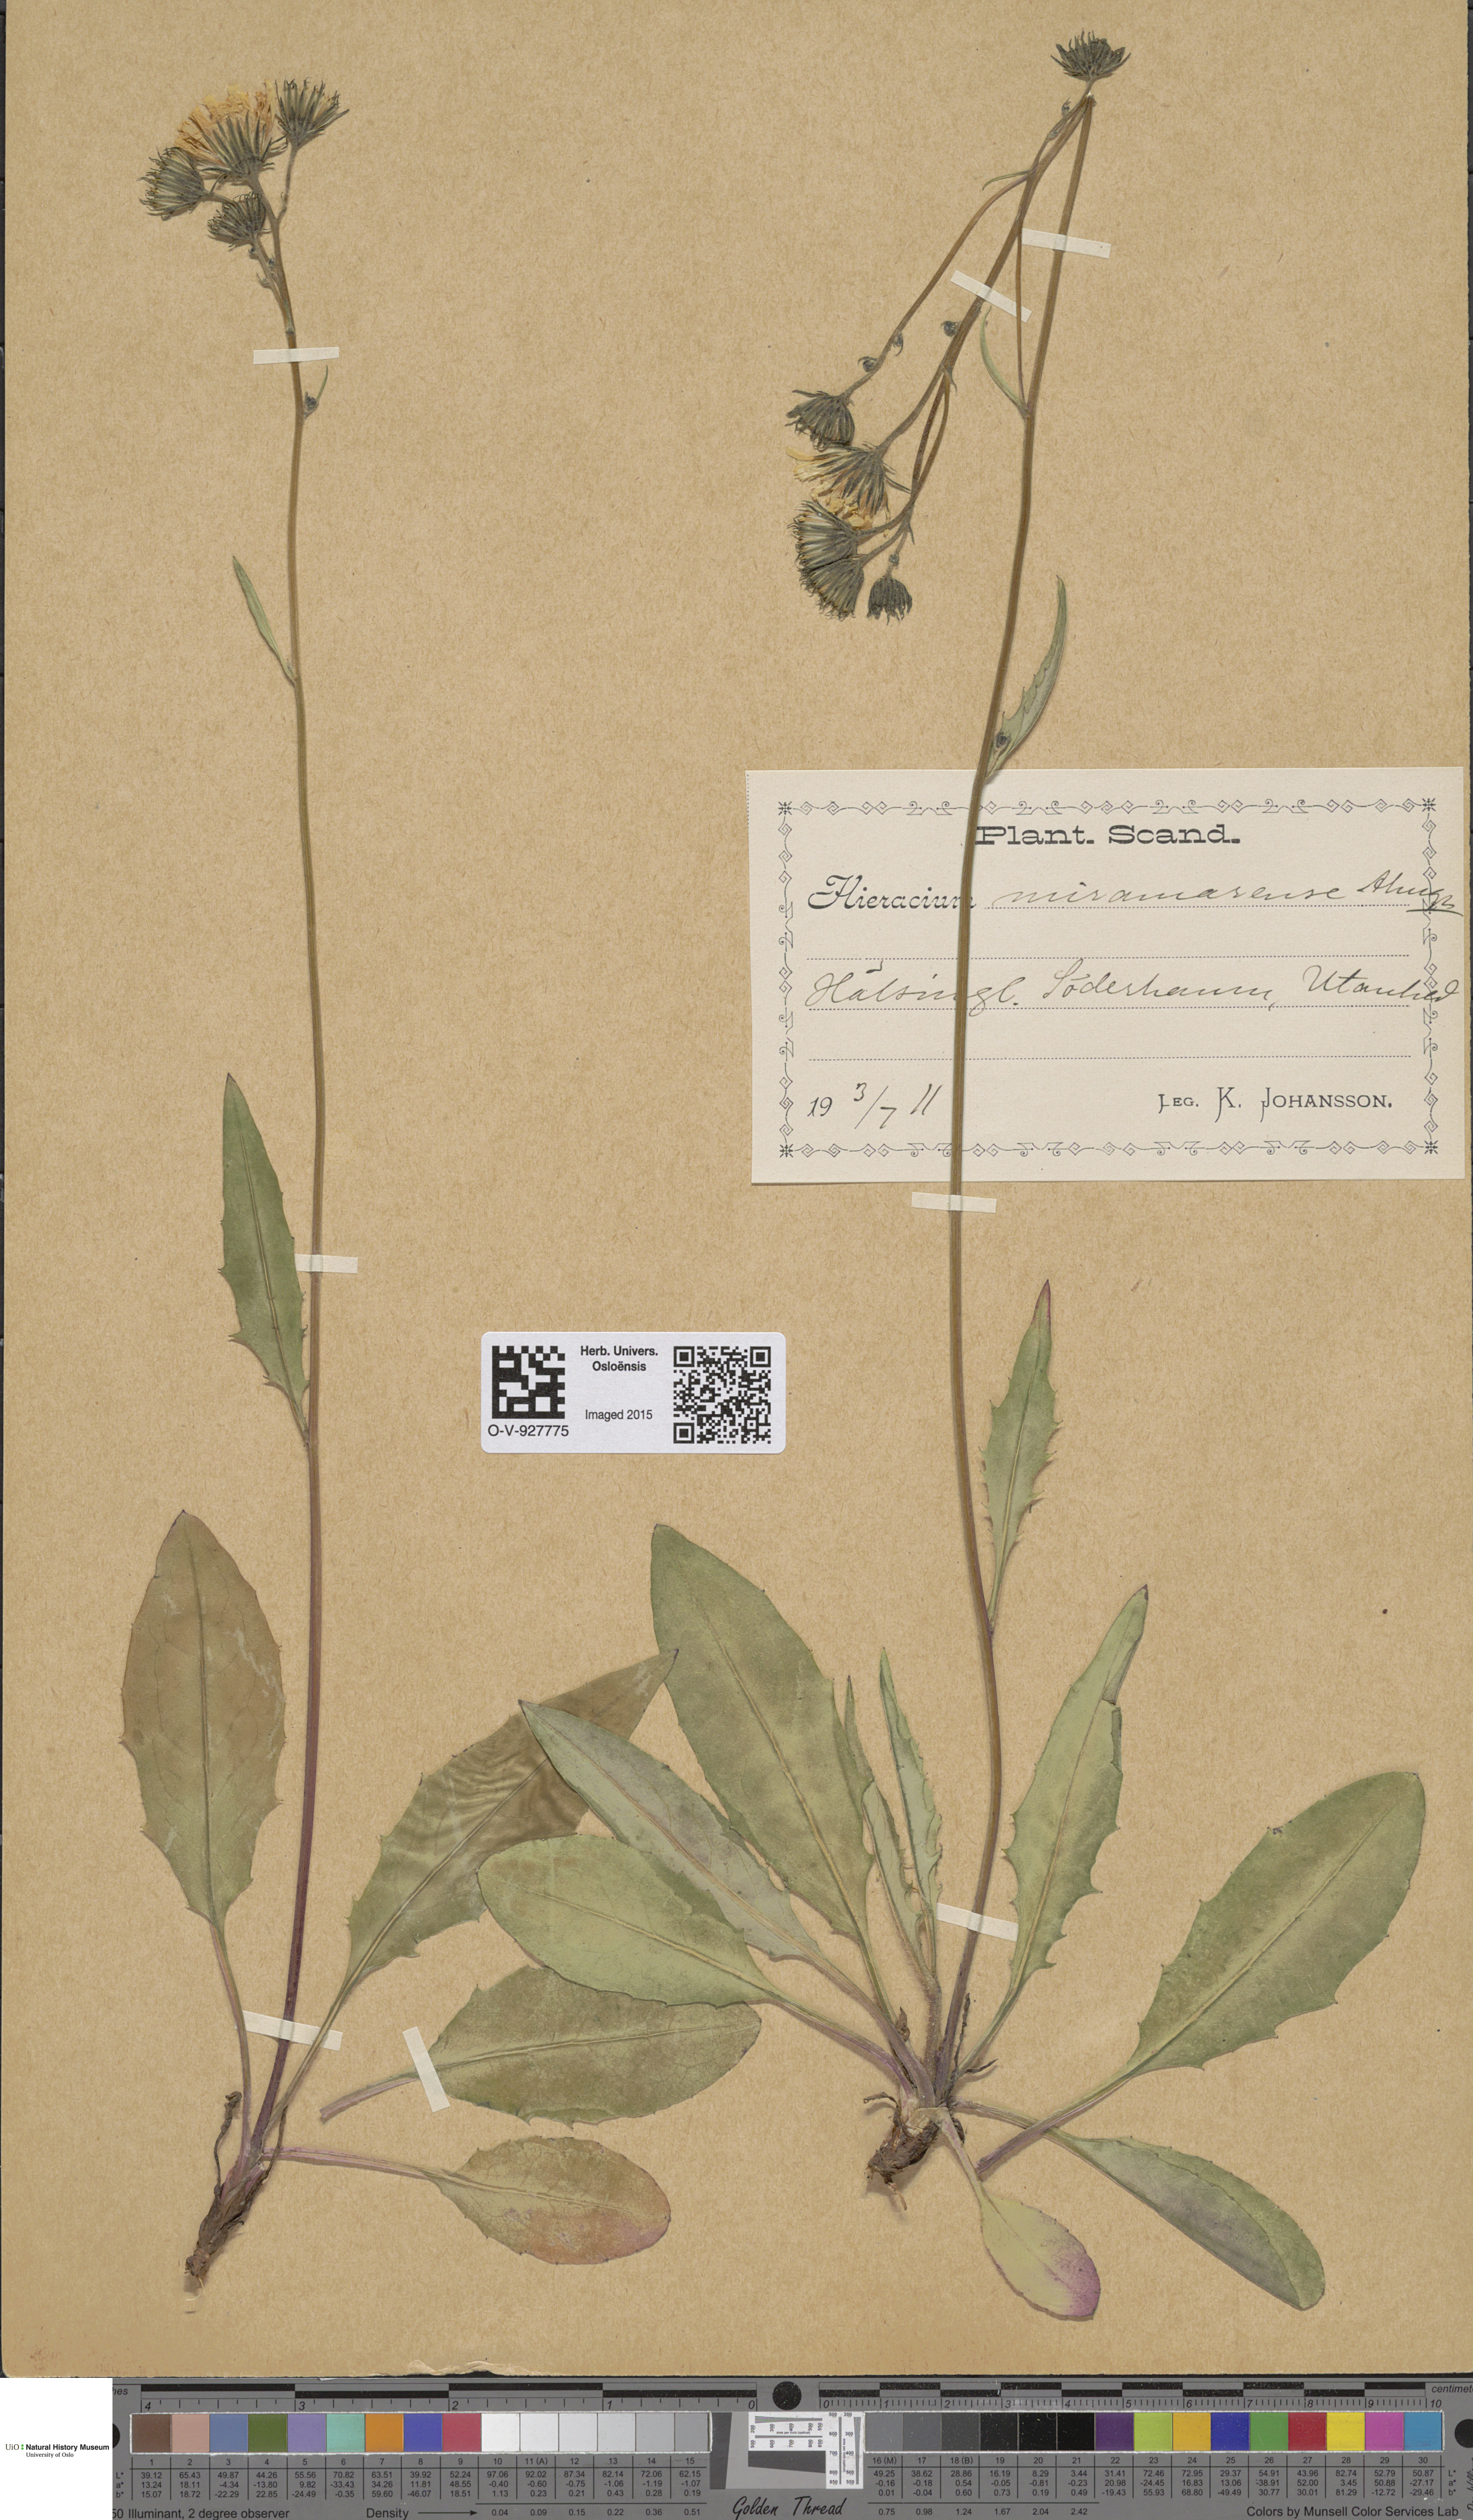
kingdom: Plantae
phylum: Tracheophyta
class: Magnoliopsida
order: Asterales
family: Asteraceae
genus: Hieracium
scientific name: Hieracium
